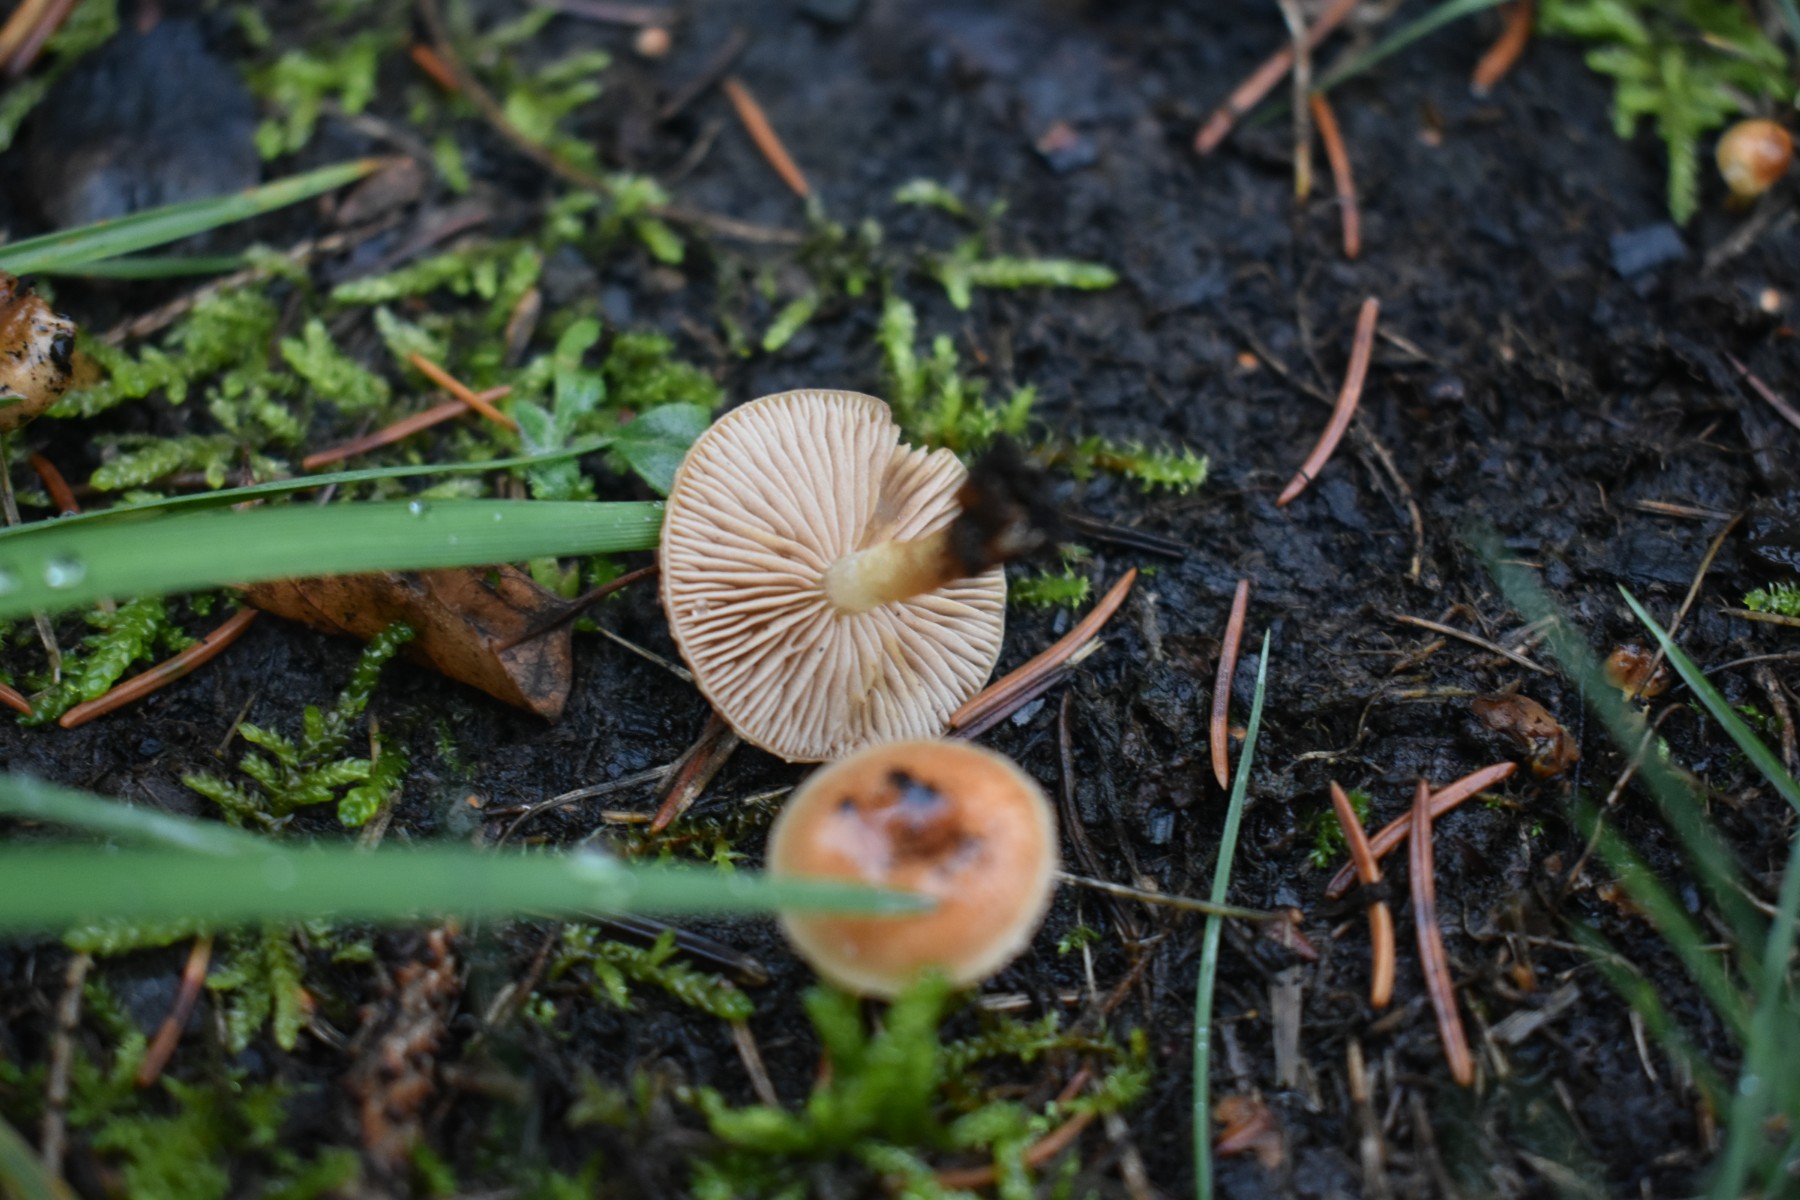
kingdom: Fungi
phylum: Basidiomycota
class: Agaricomycetes
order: Agaricales
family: Strophariaceae
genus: Pholiota
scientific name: Pholiota carbonaria
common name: kul-skælhat
